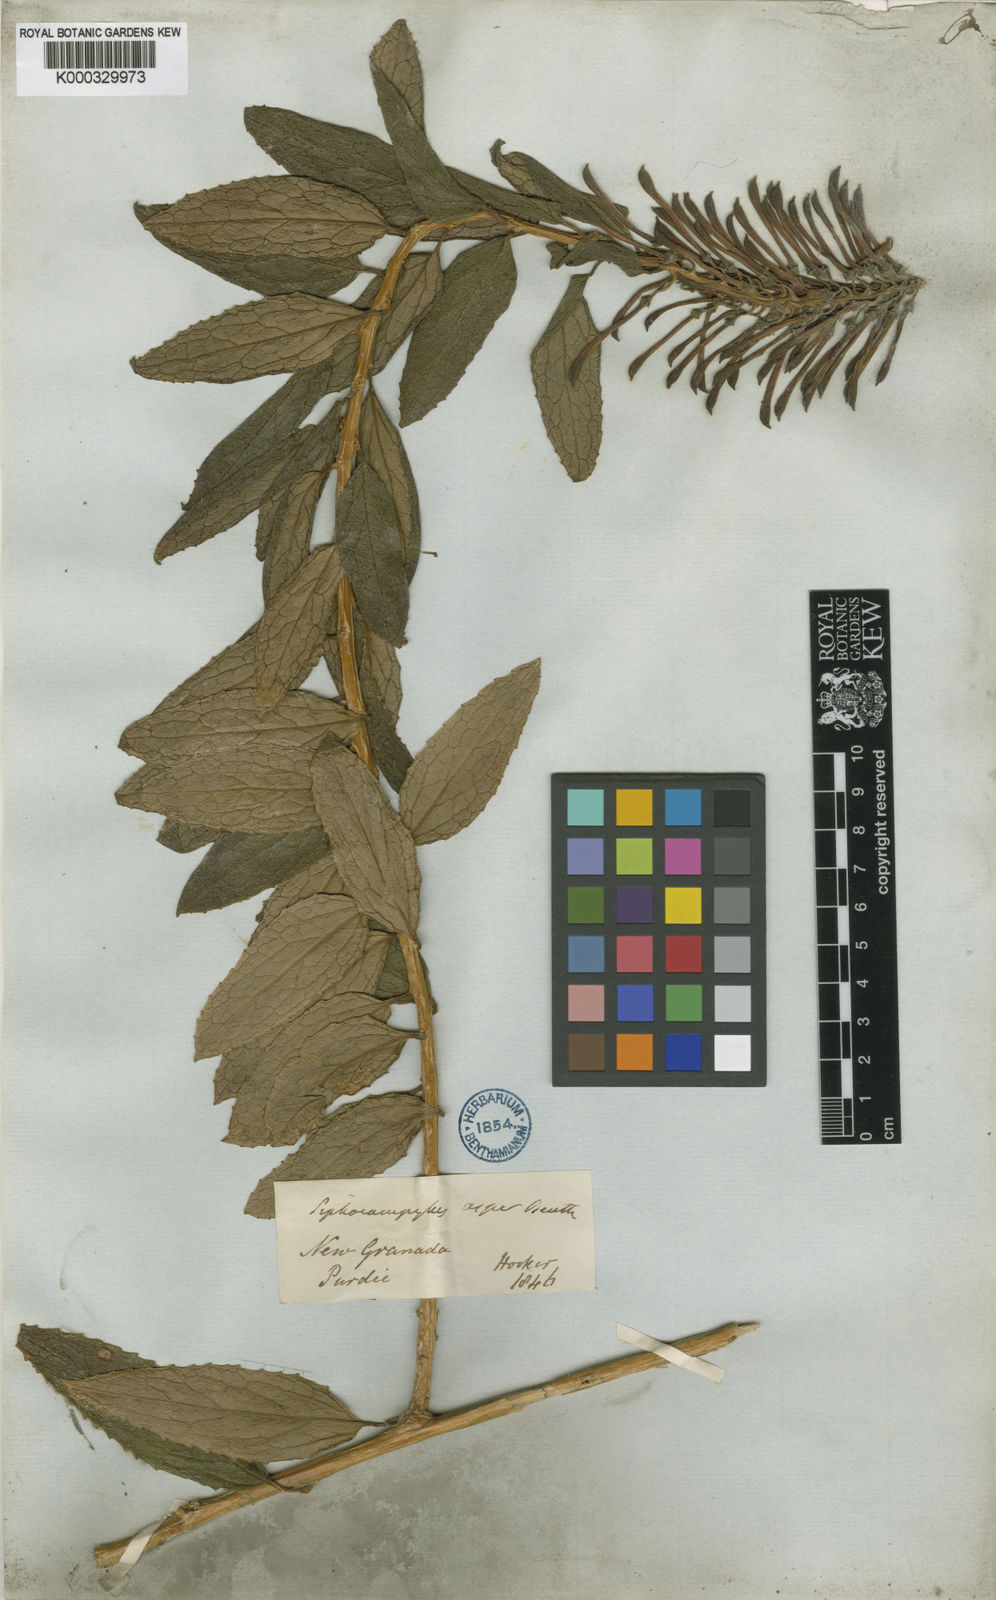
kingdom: Plantae
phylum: Tracheophyta
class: Magnoliopsida
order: Asterales
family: Campanulaceae
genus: Siphocampylus
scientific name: Siphocampylus retrorsus
